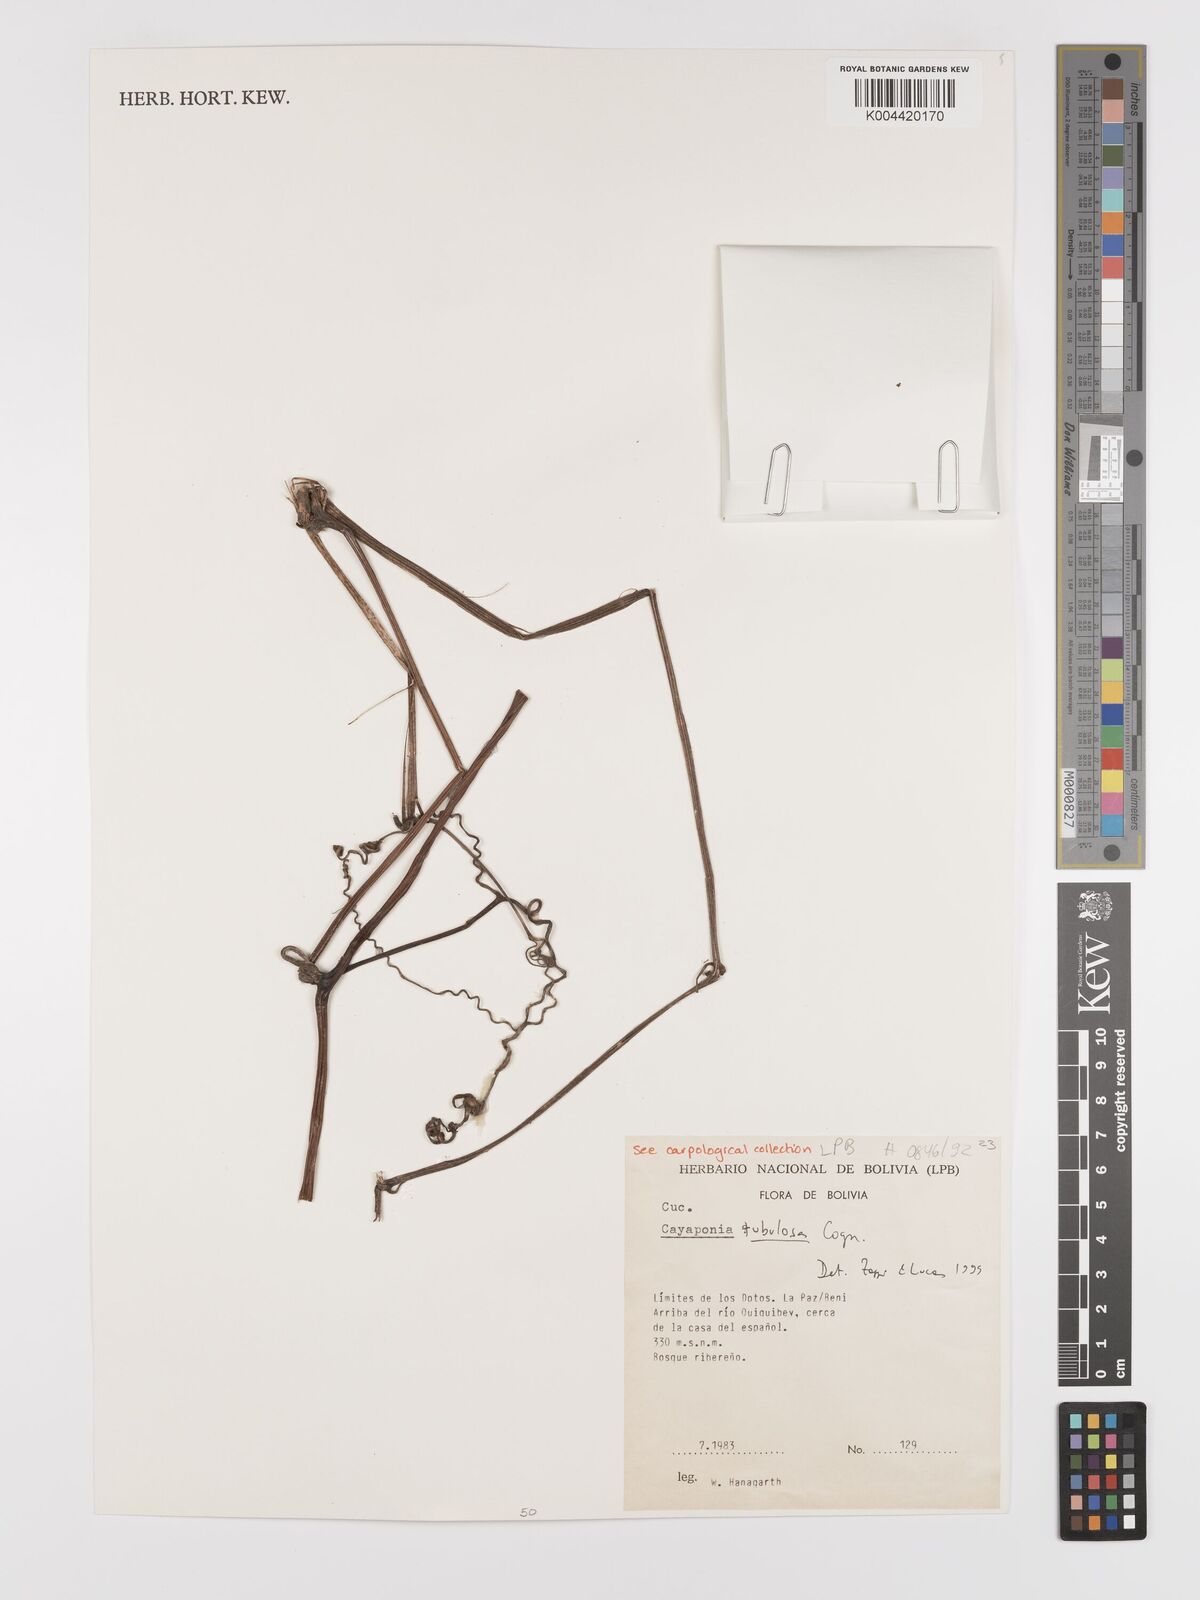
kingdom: Plantae
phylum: Tracheophyta
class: Magnoliopsida
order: Cucurbitales
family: Cucurbitaceae
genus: Cayaponia
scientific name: Cayaponia tubulosa
